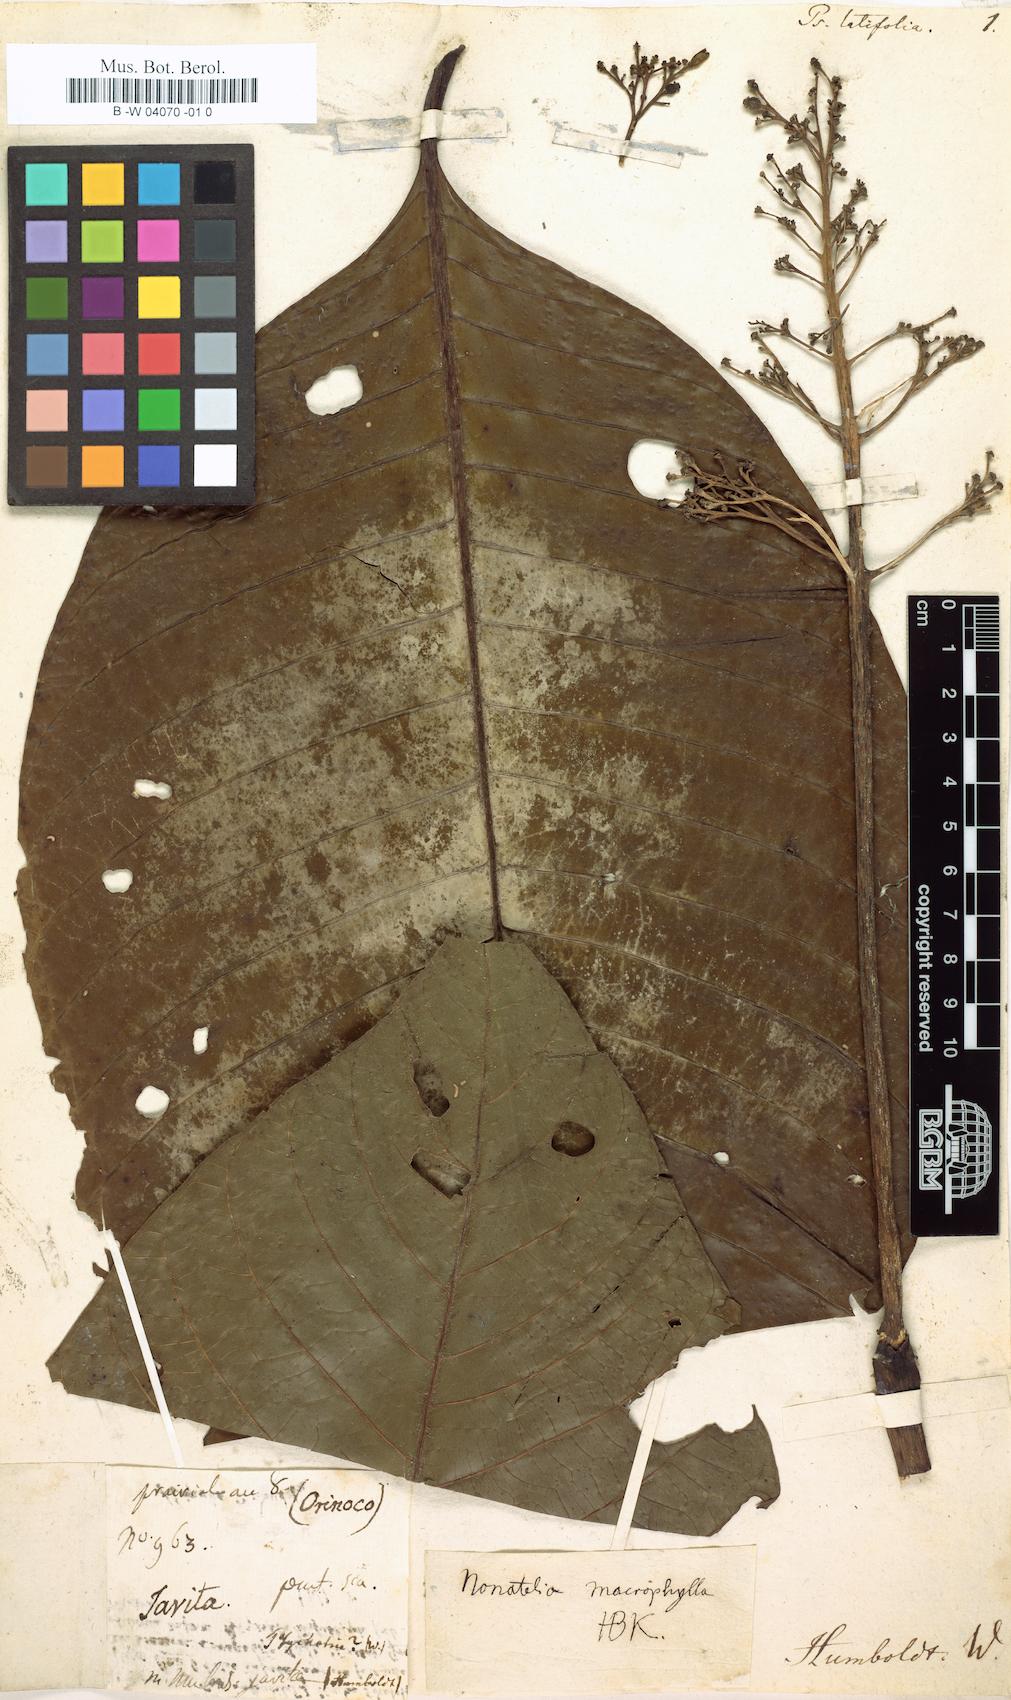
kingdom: Plantae
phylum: Tracheophyta
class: Magnoliopsida
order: Gentianales
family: Rubiaceae
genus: Palicourea
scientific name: Palicourea grandifolia
